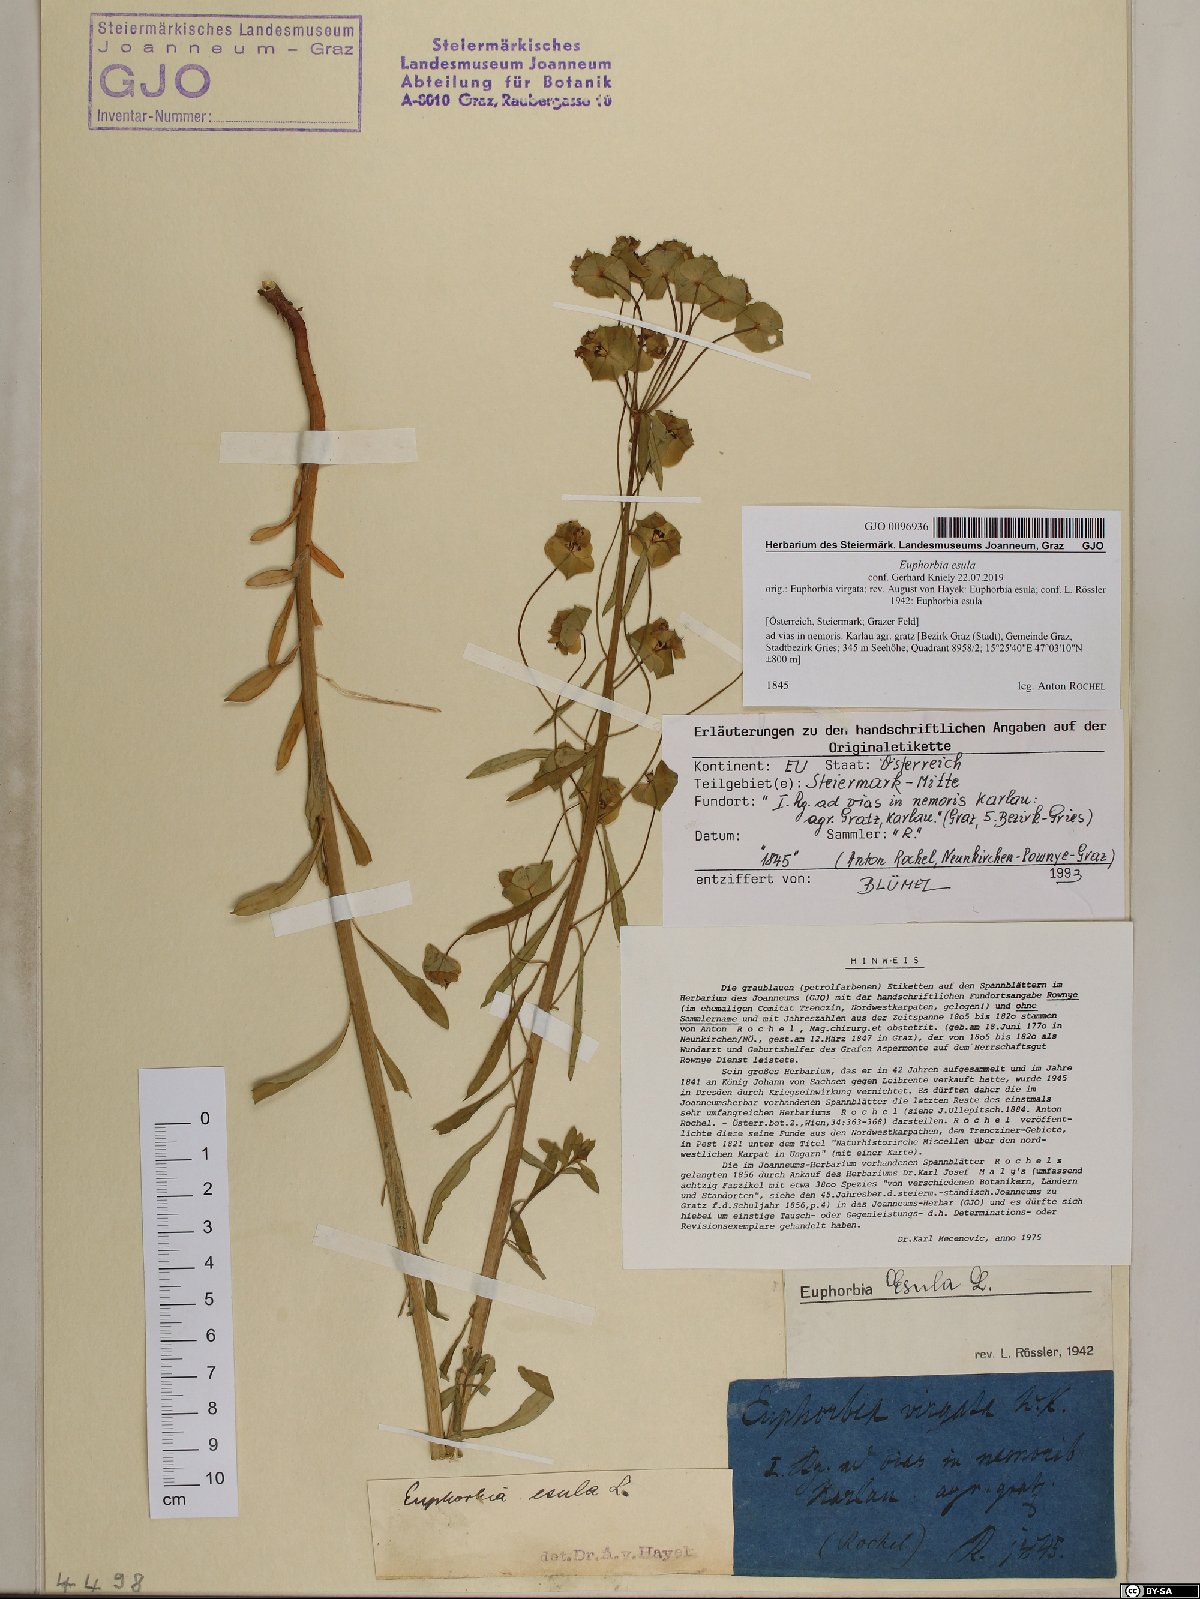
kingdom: Plantae
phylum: Tracheophyta
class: Magnoliopsida
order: Malpighiales
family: Euphorbiaceae
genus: Euphorbia
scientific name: Euphorbia esula
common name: Leafy spurge
